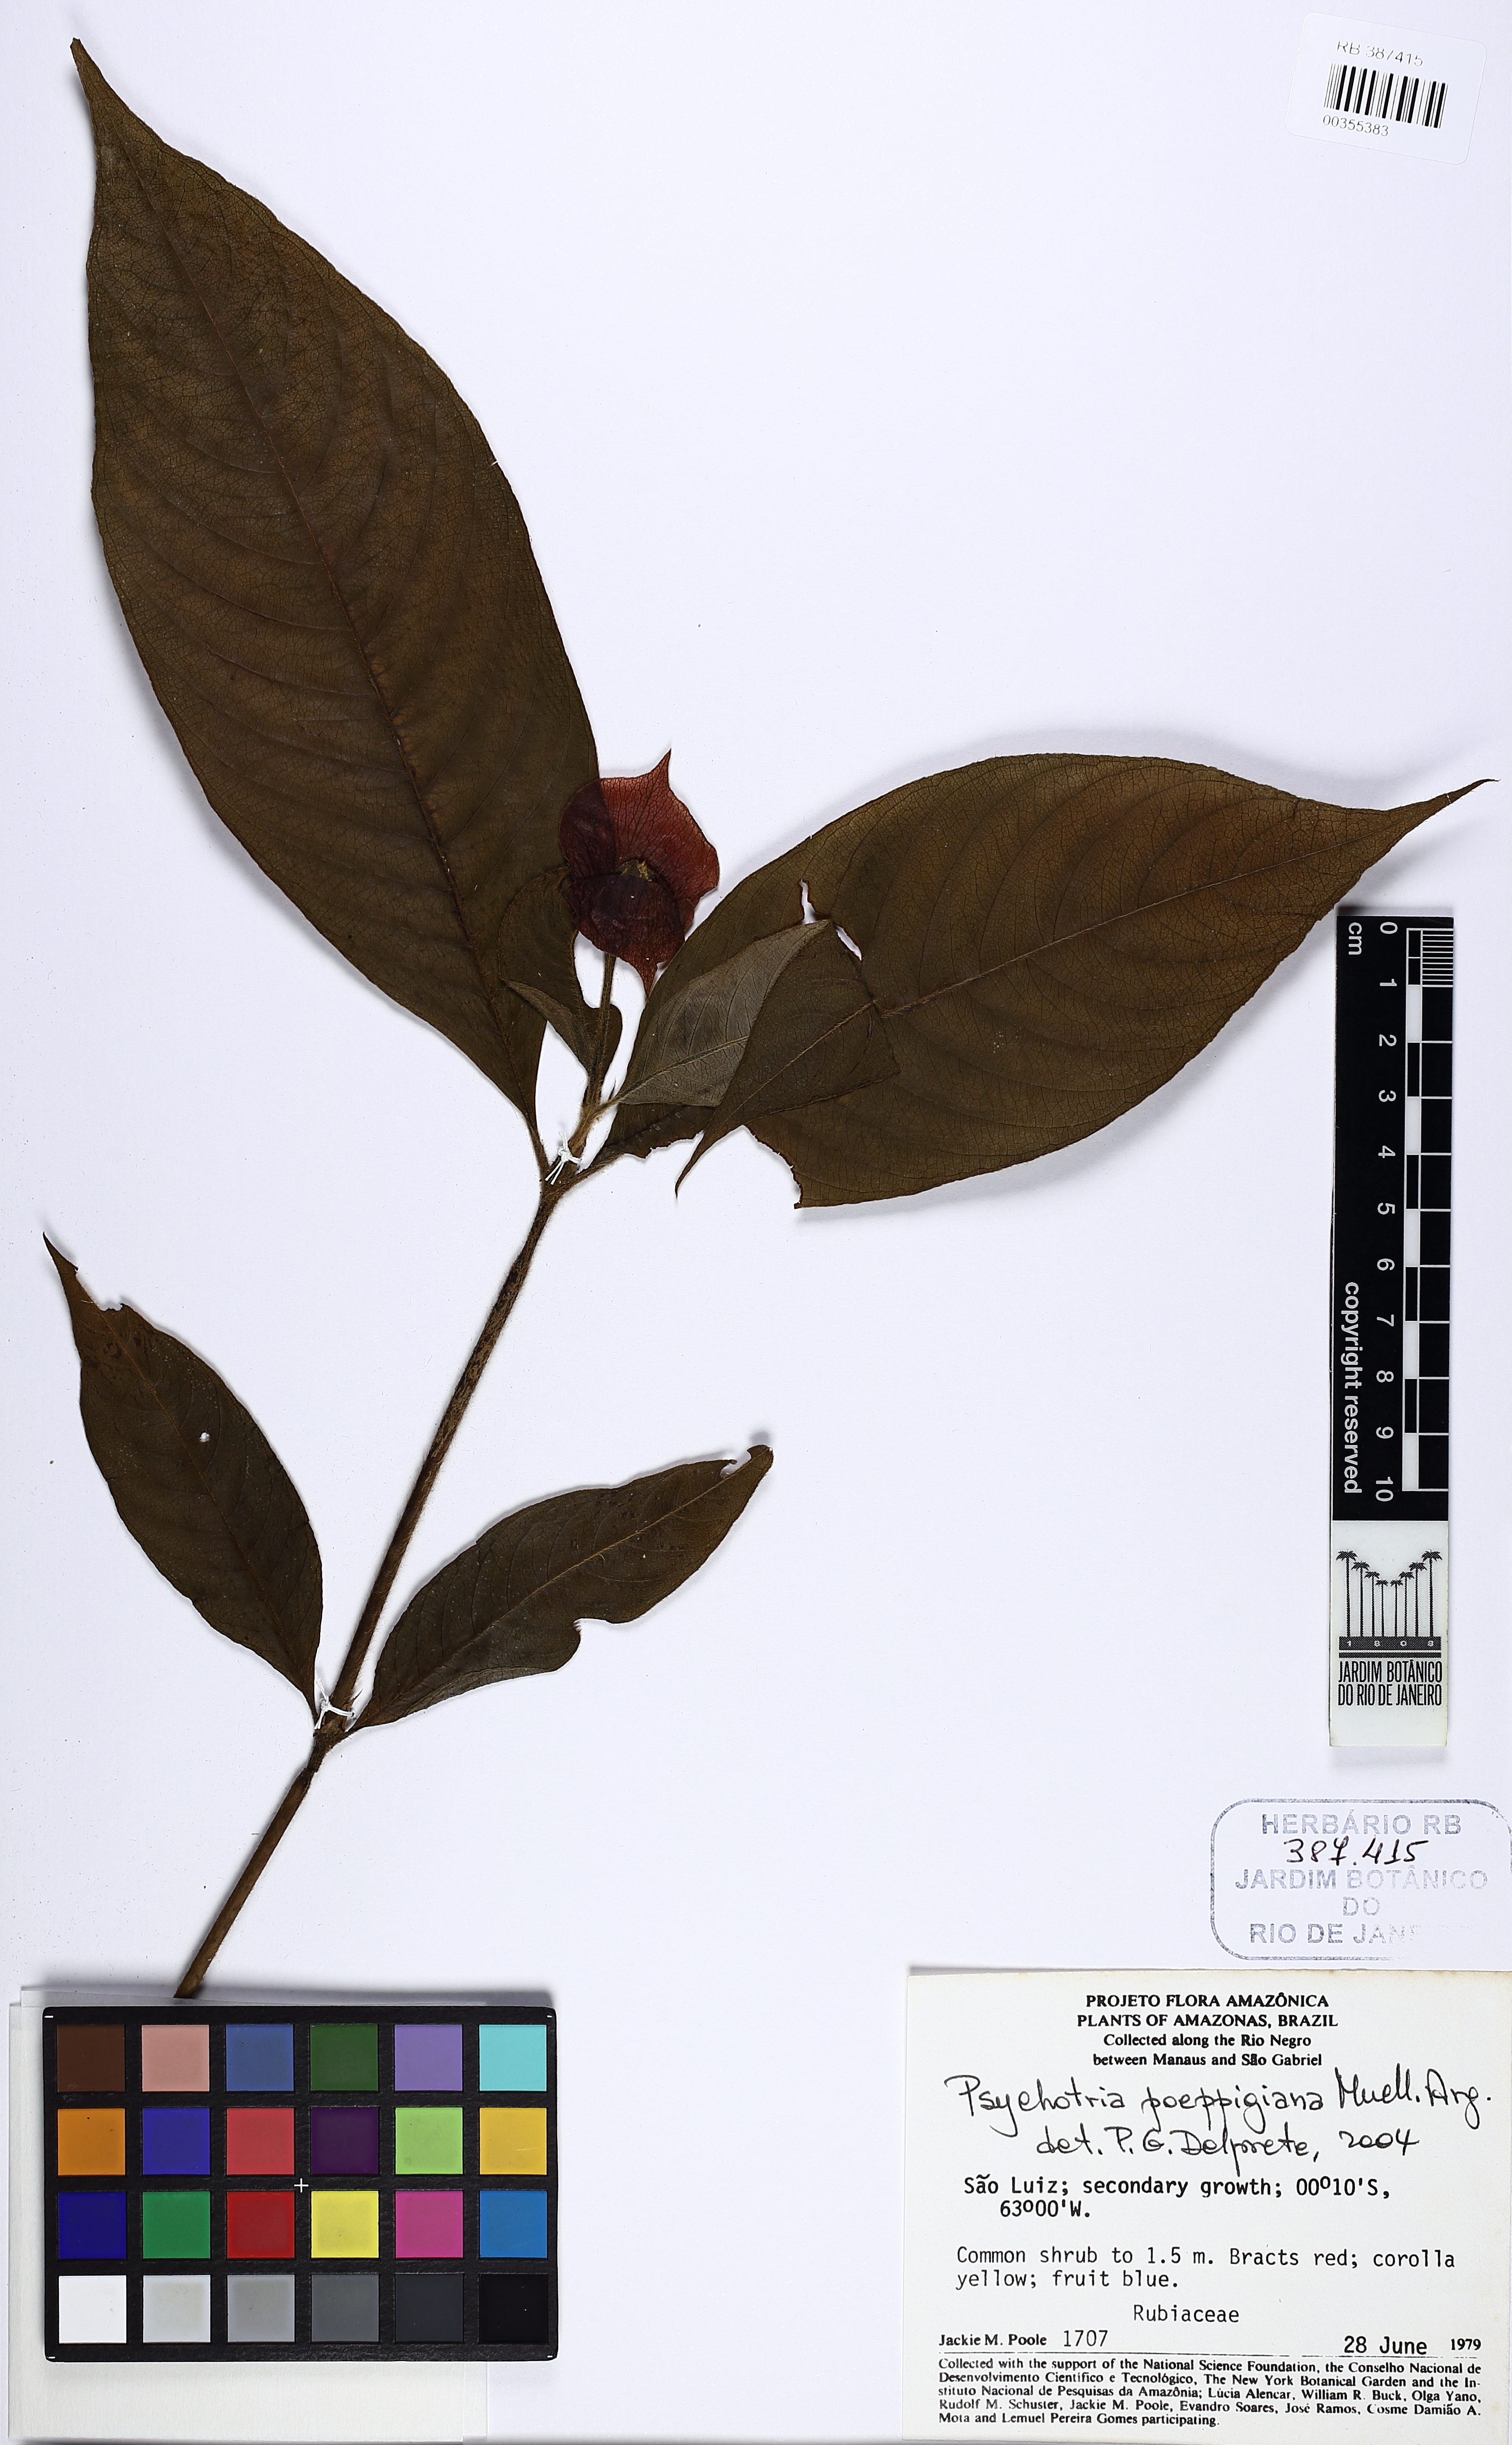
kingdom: Plantae
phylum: Tracheophyta
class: Magnoliopsida
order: Gentianales
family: Rubiaceae
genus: Palicourea
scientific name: Palicourea tomentosa
